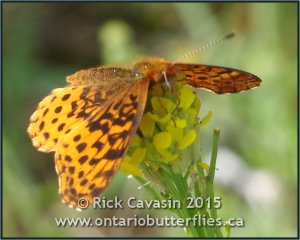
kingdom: Animalia
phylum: Arthropoda
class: Insecta
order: Lepidoptera
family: Nymphalidae
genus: Clossiana
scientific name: Clossiana toddi
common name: Meadow Fritillary
